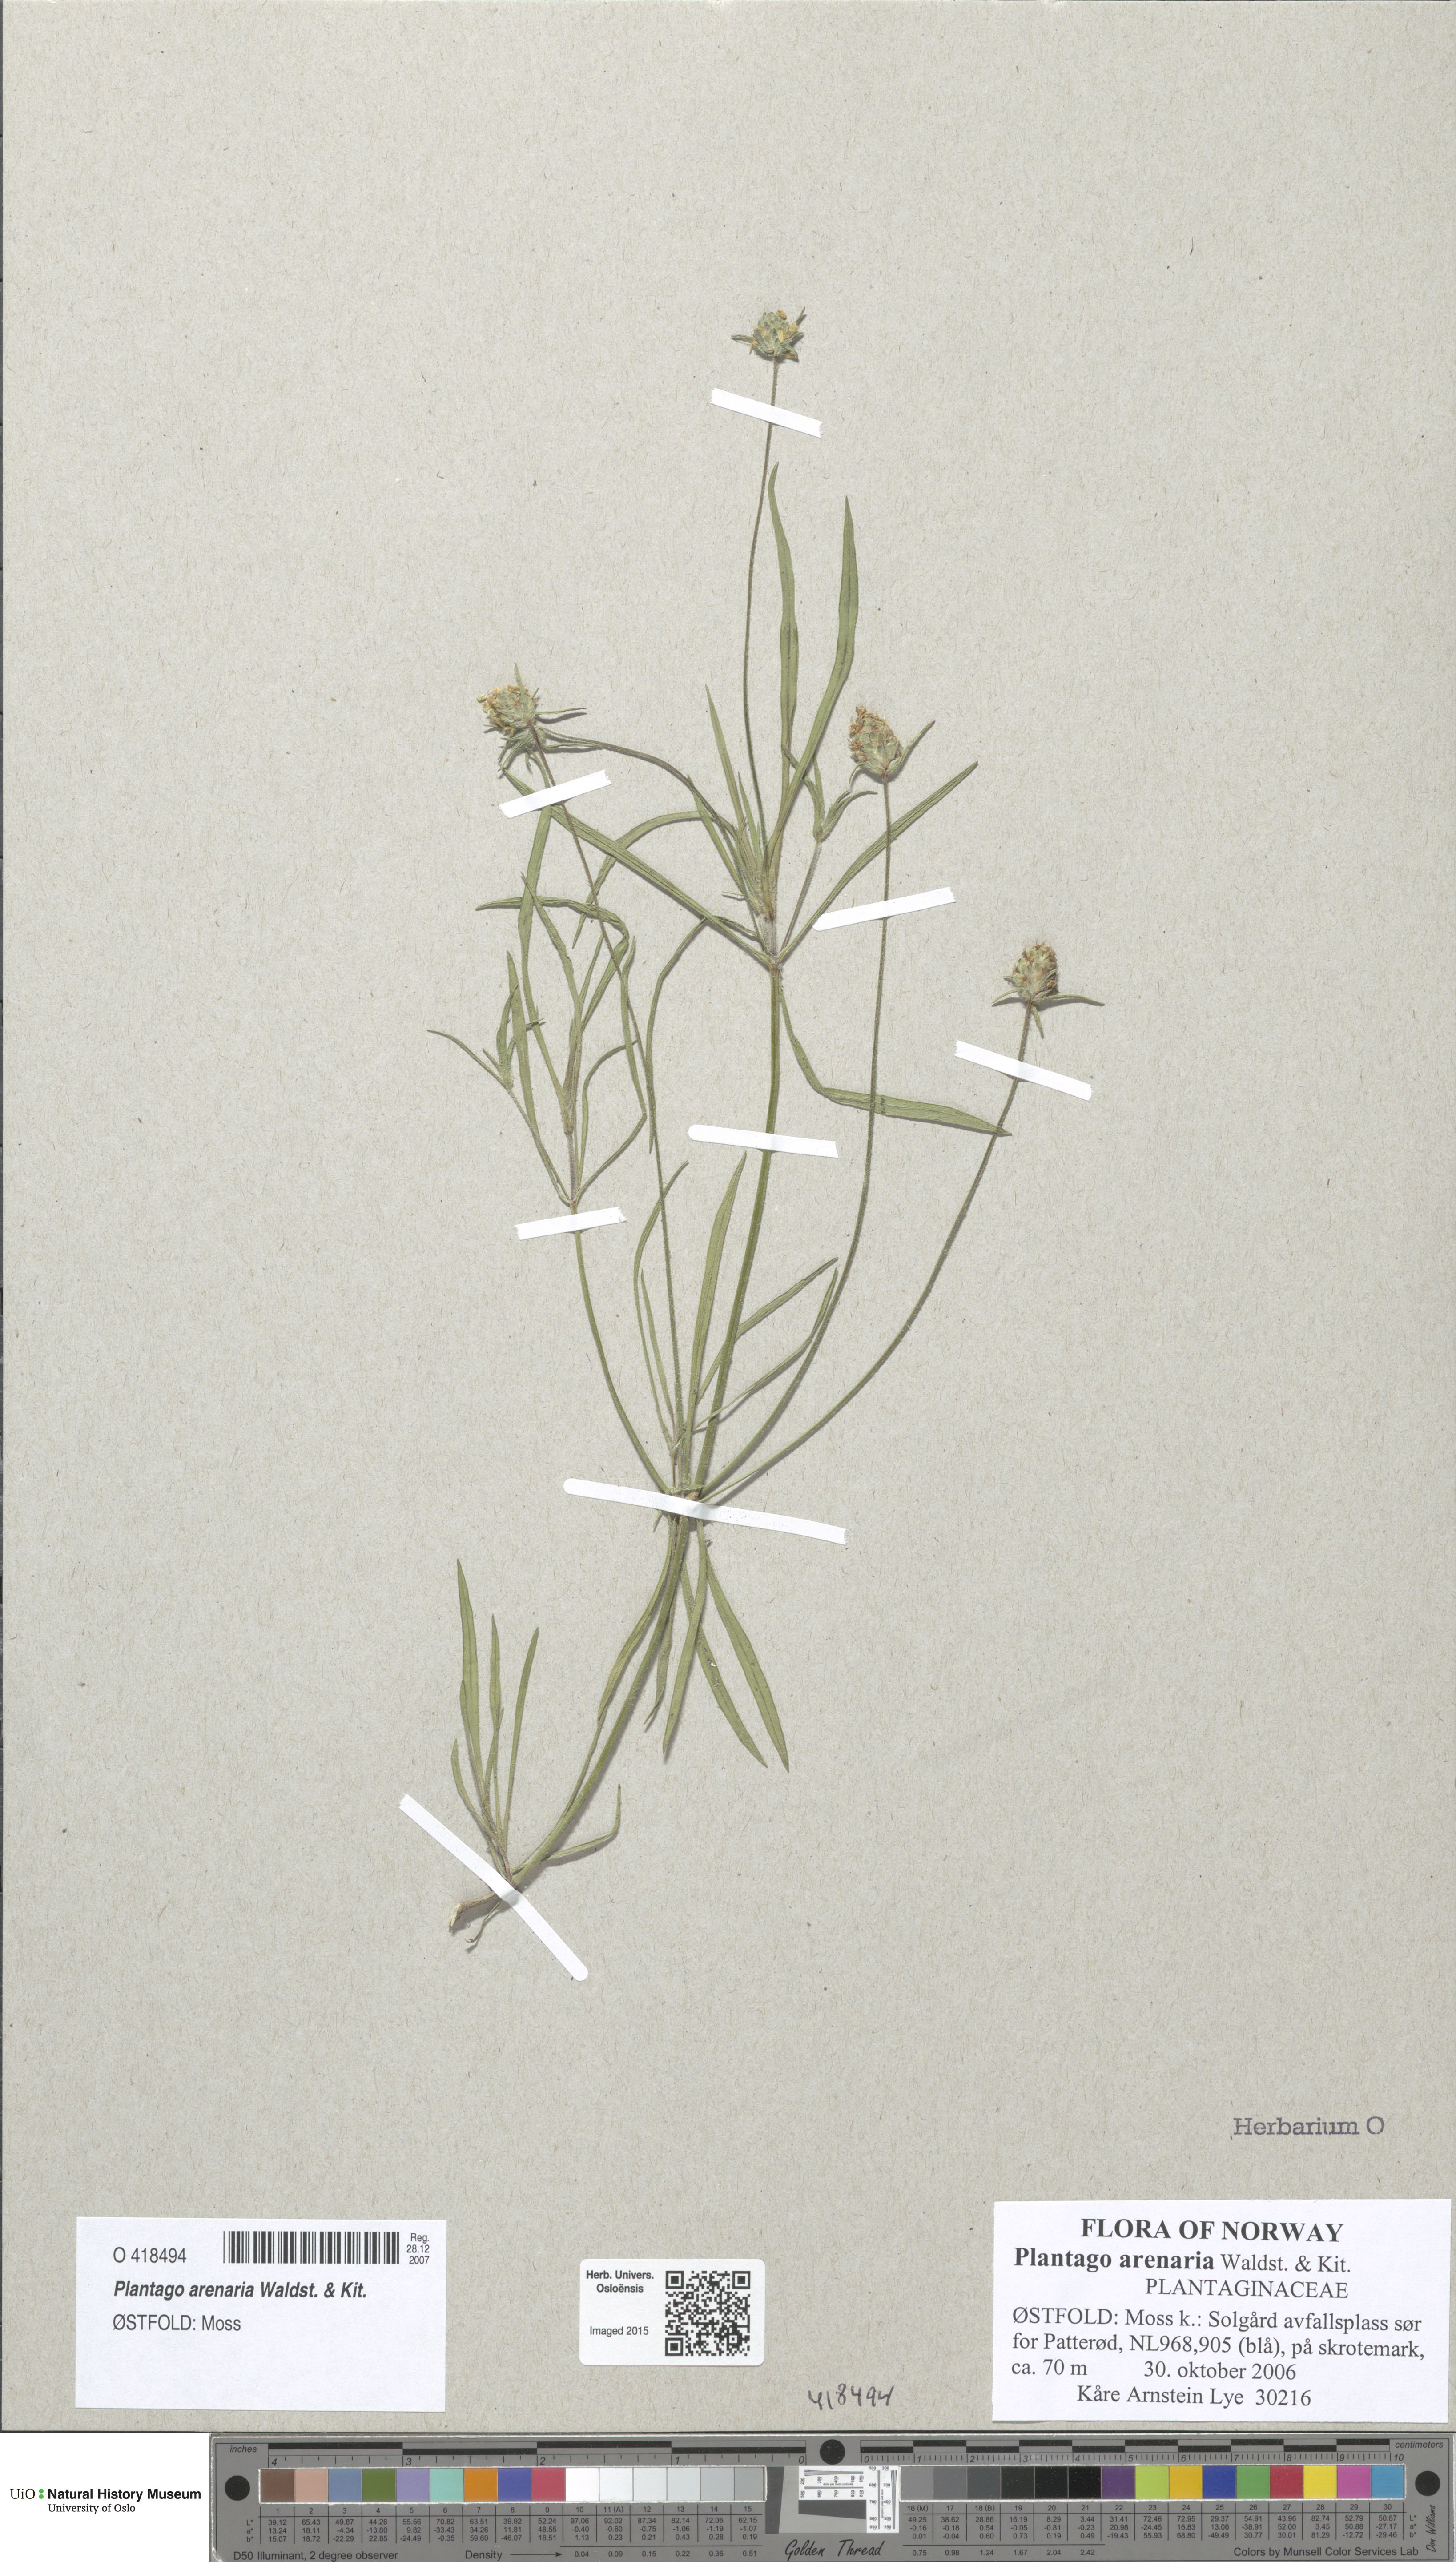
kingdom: Plantae
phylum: Tracheophyta
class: Magnoliopsida
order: Lamiales
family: Plantaginaceae
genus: Plantago
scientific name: Plantago arenaria
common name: Branched plantain
